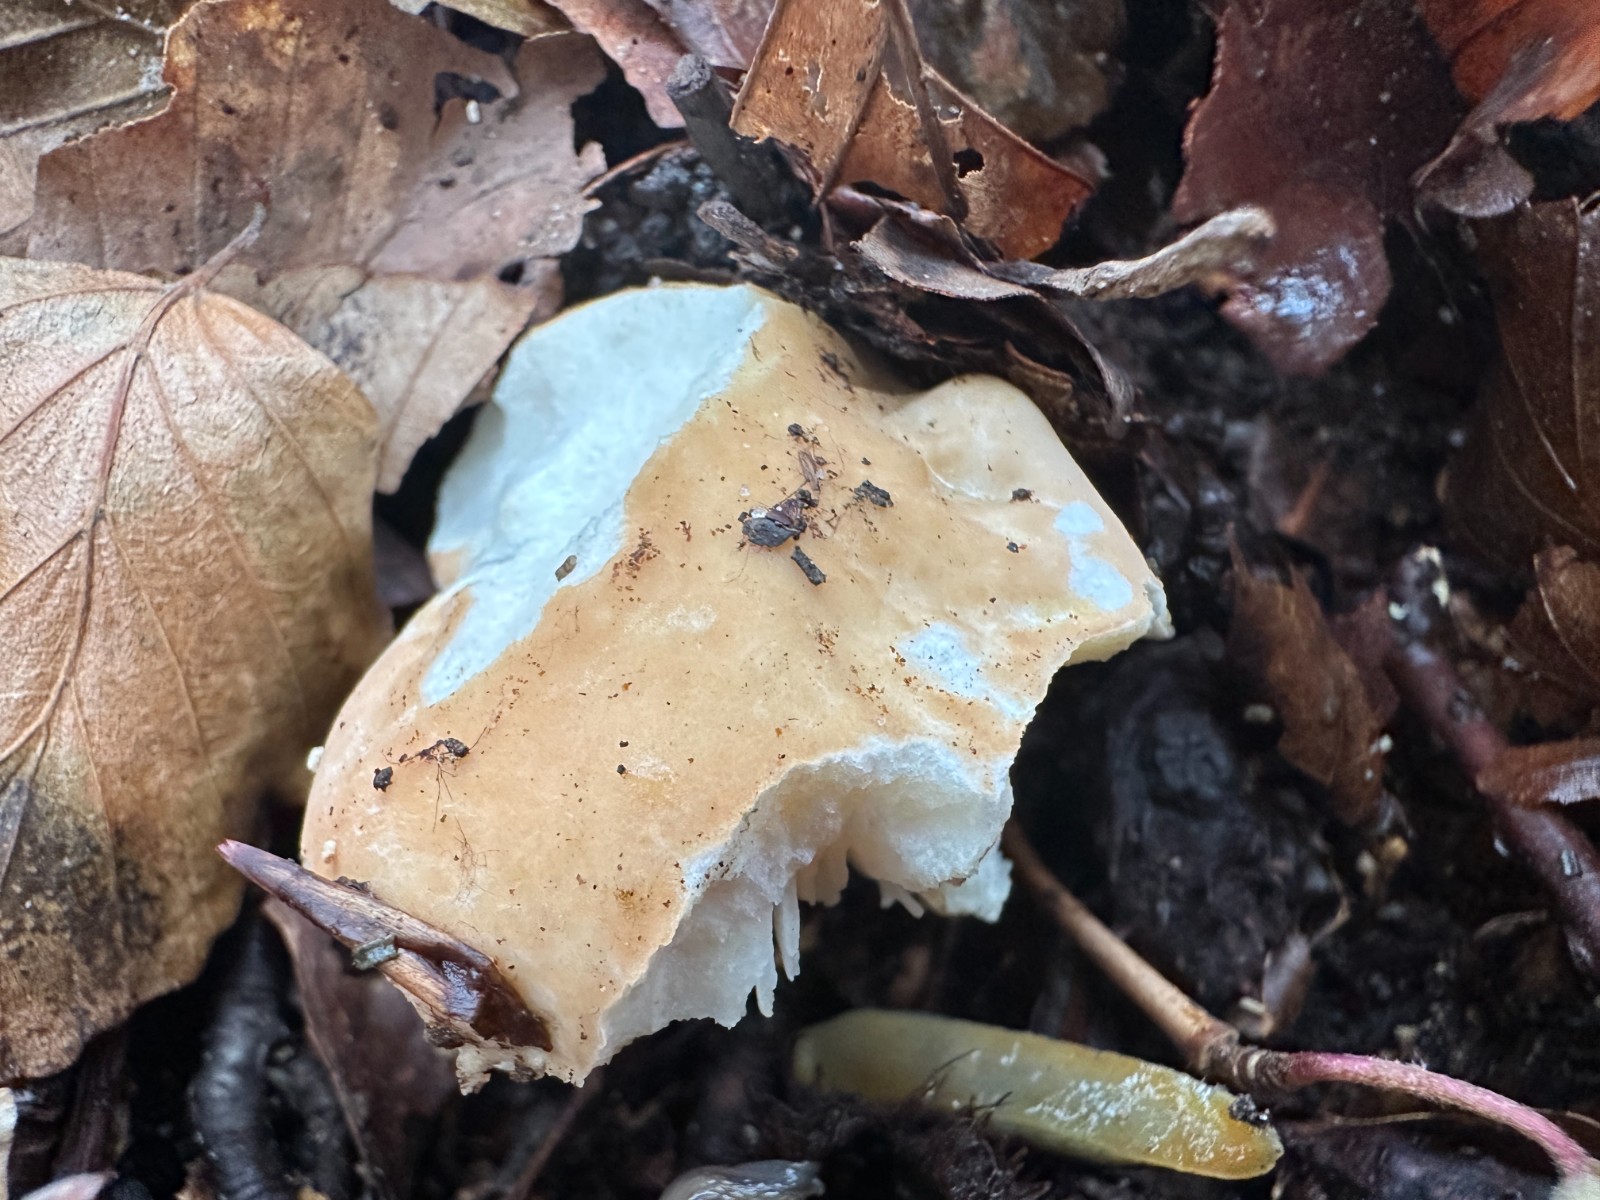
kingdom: Fungi
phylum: Basidiomycota
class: Agaricomycetes
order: Russulales
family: Russulaceae
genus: Russula
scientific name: Russula fellea
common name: galde-skørhat
